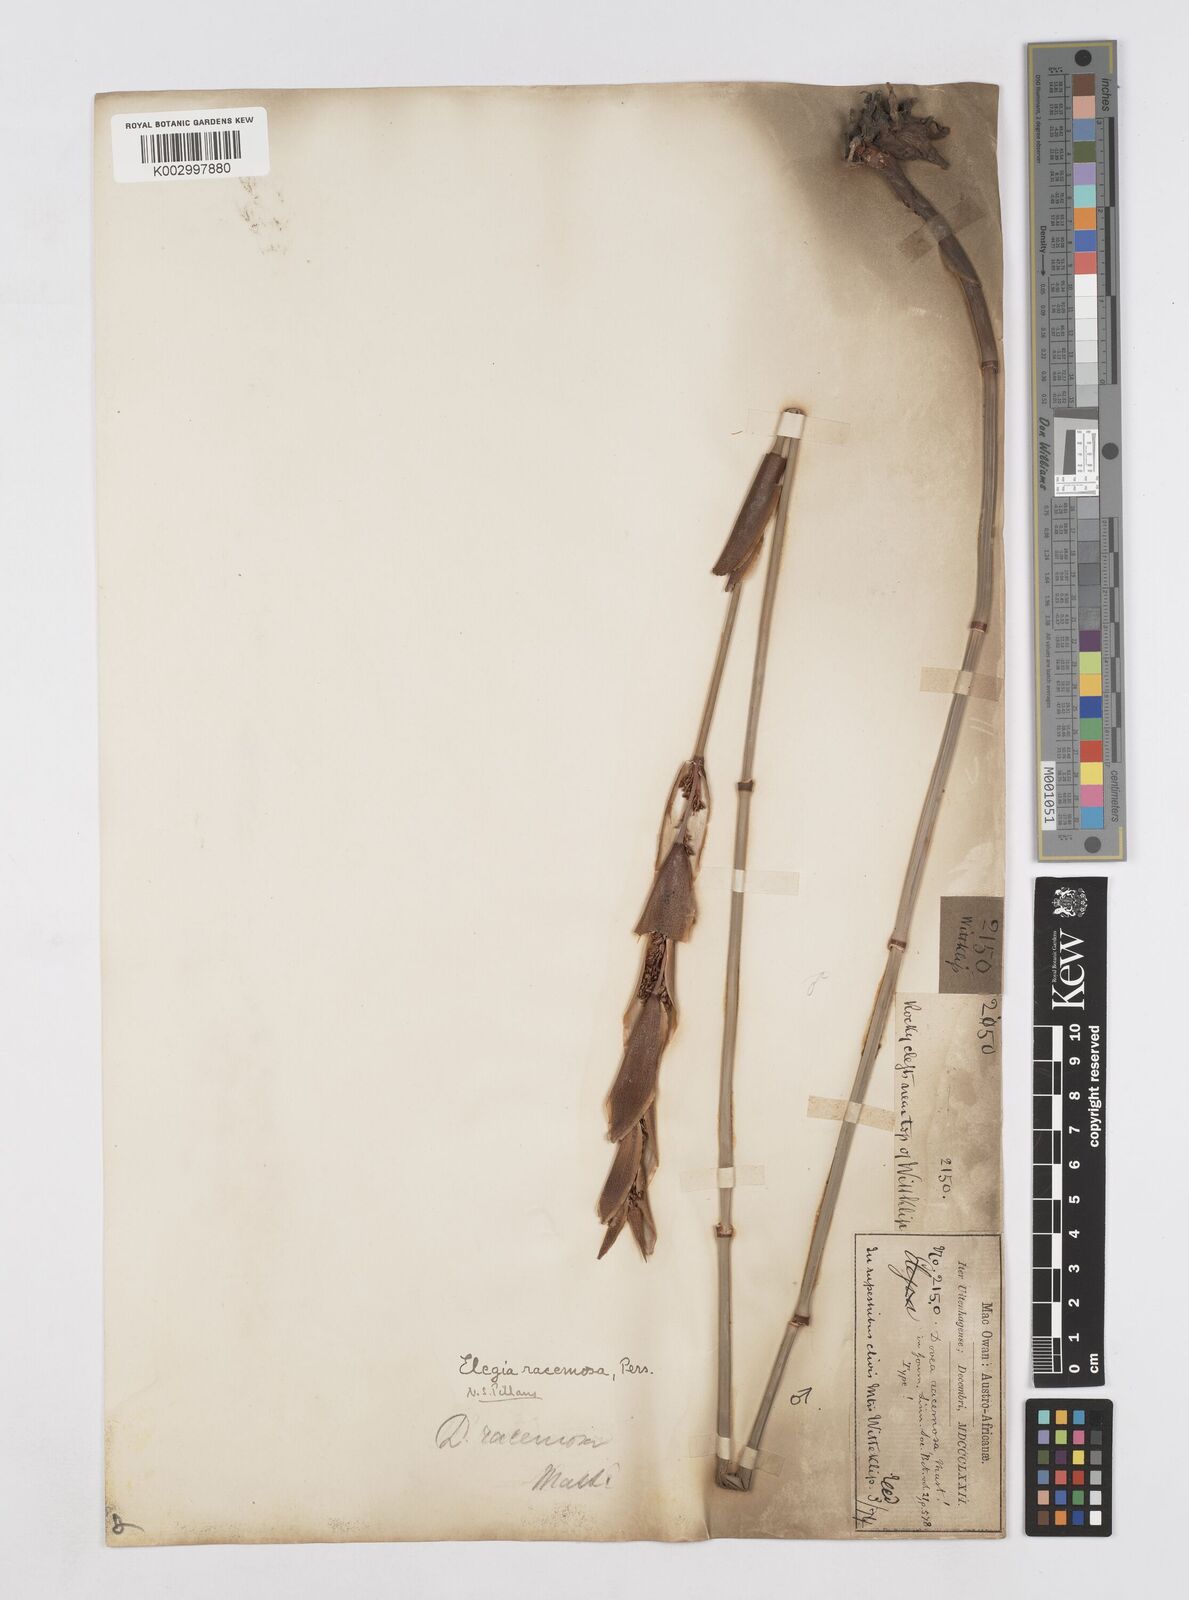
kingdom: Plantae
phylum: Tracheophyta
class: Liliopsida
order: Poales
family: Restionaceae
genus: Elegia
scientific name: Elegia racemosa
